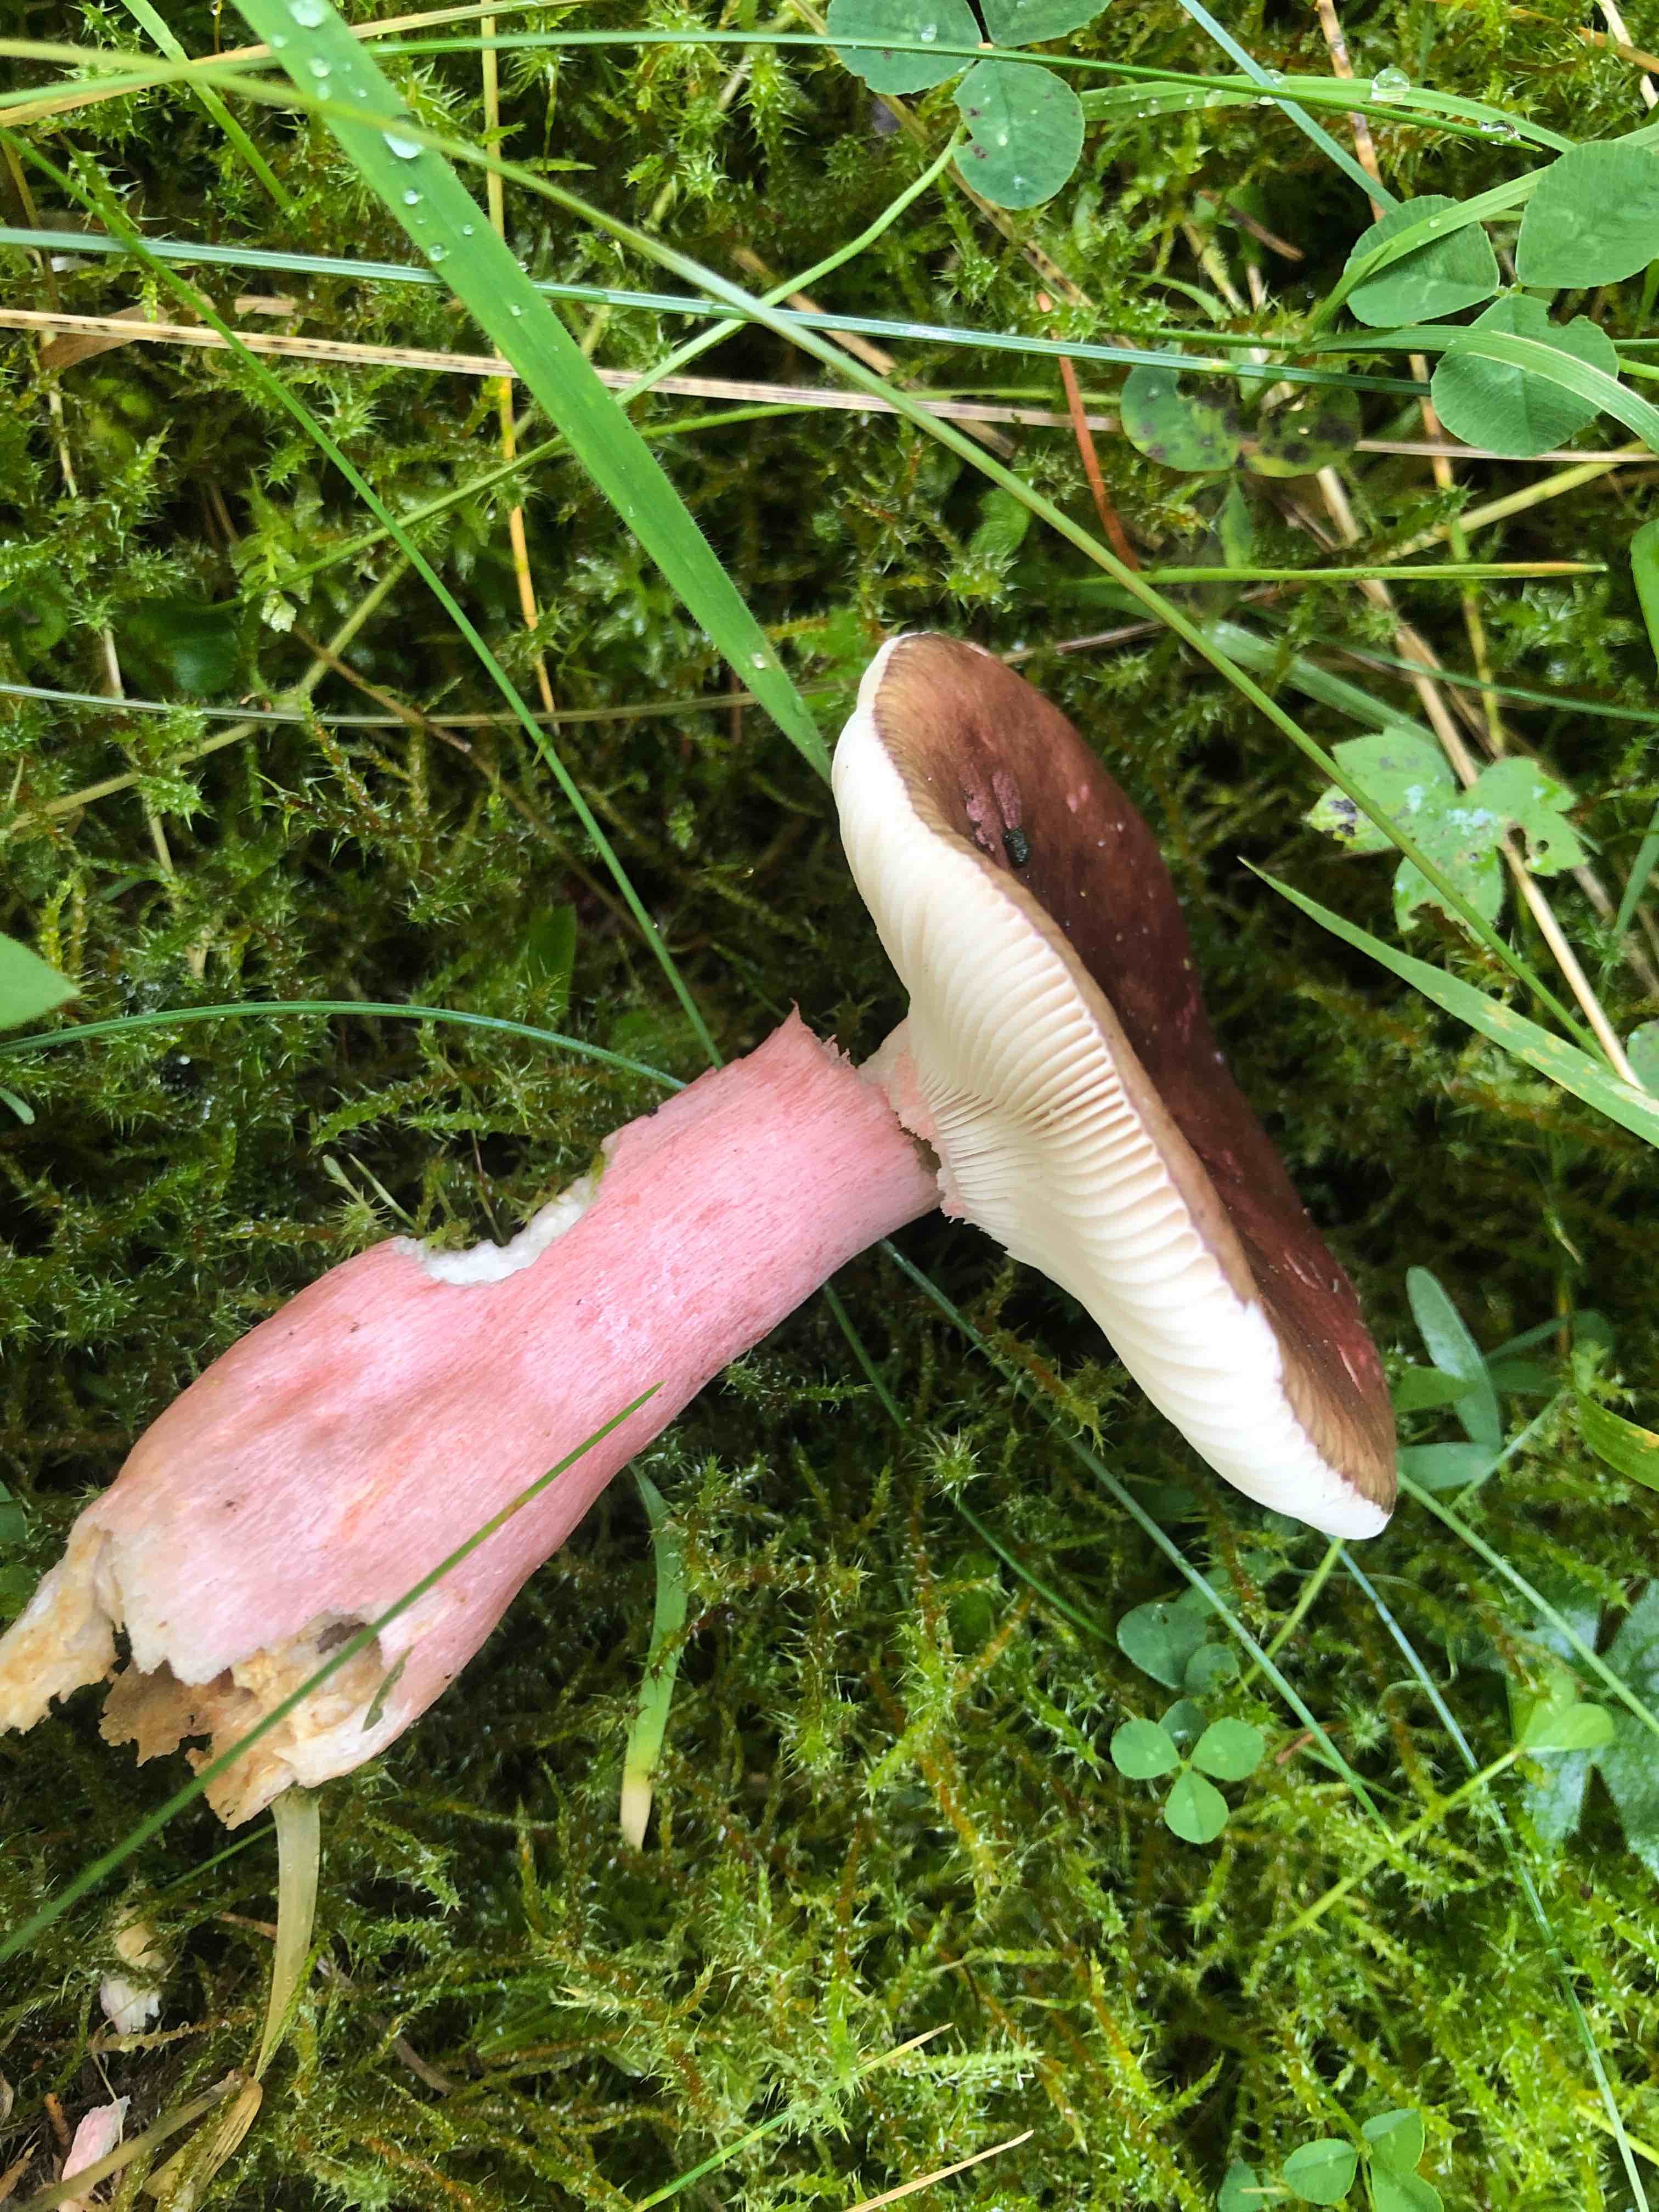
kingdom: Fungi
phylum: Basidiomycota
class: Agaricomycetes
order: Russulales
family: Russulaceae
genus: Russula
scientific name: Russula queletii
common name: Quélets skørhat
